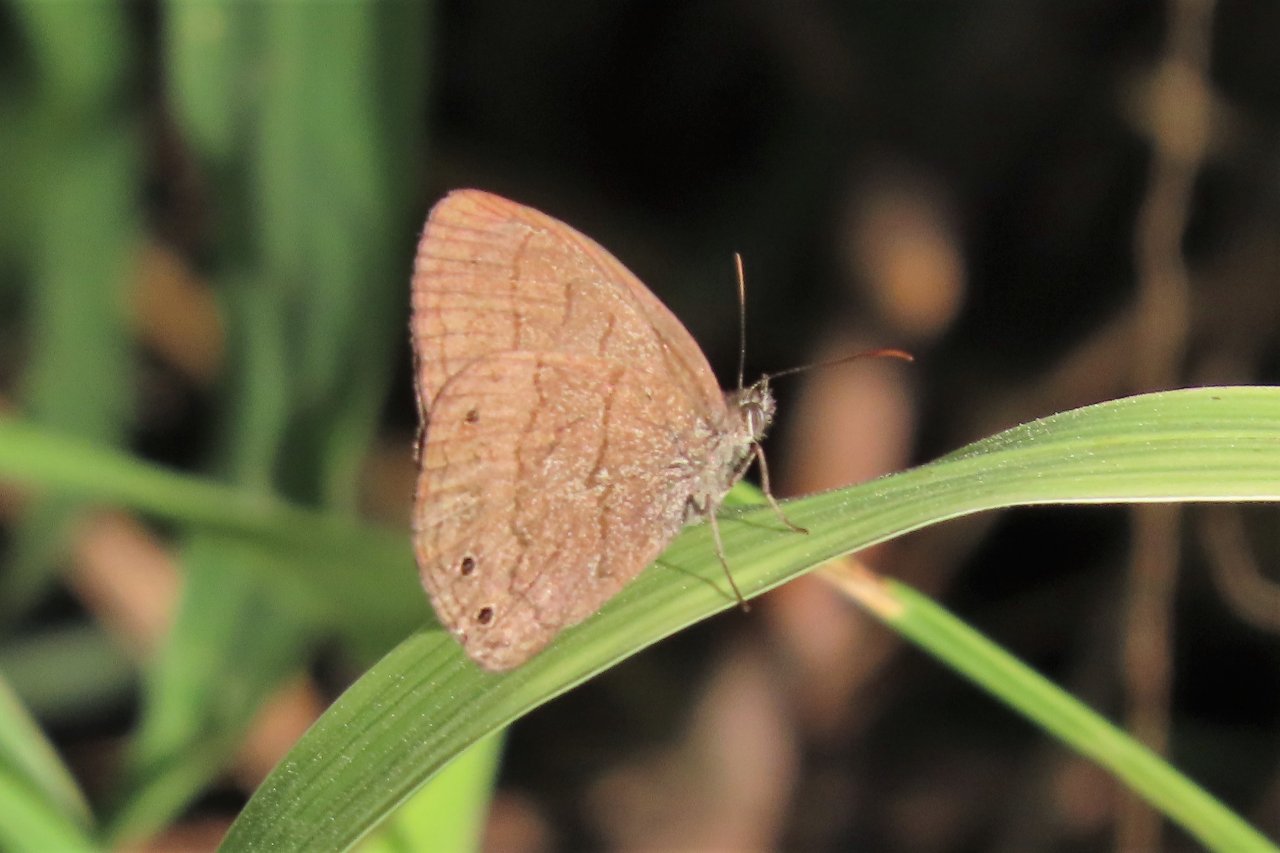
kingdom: Animalia
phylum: Arthropoda
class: Insecta
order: Lepidoptera
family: Nymphalidae
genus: Hermeuptychia
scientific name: Hermeuptychia hermes
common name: Carolina Satyr
